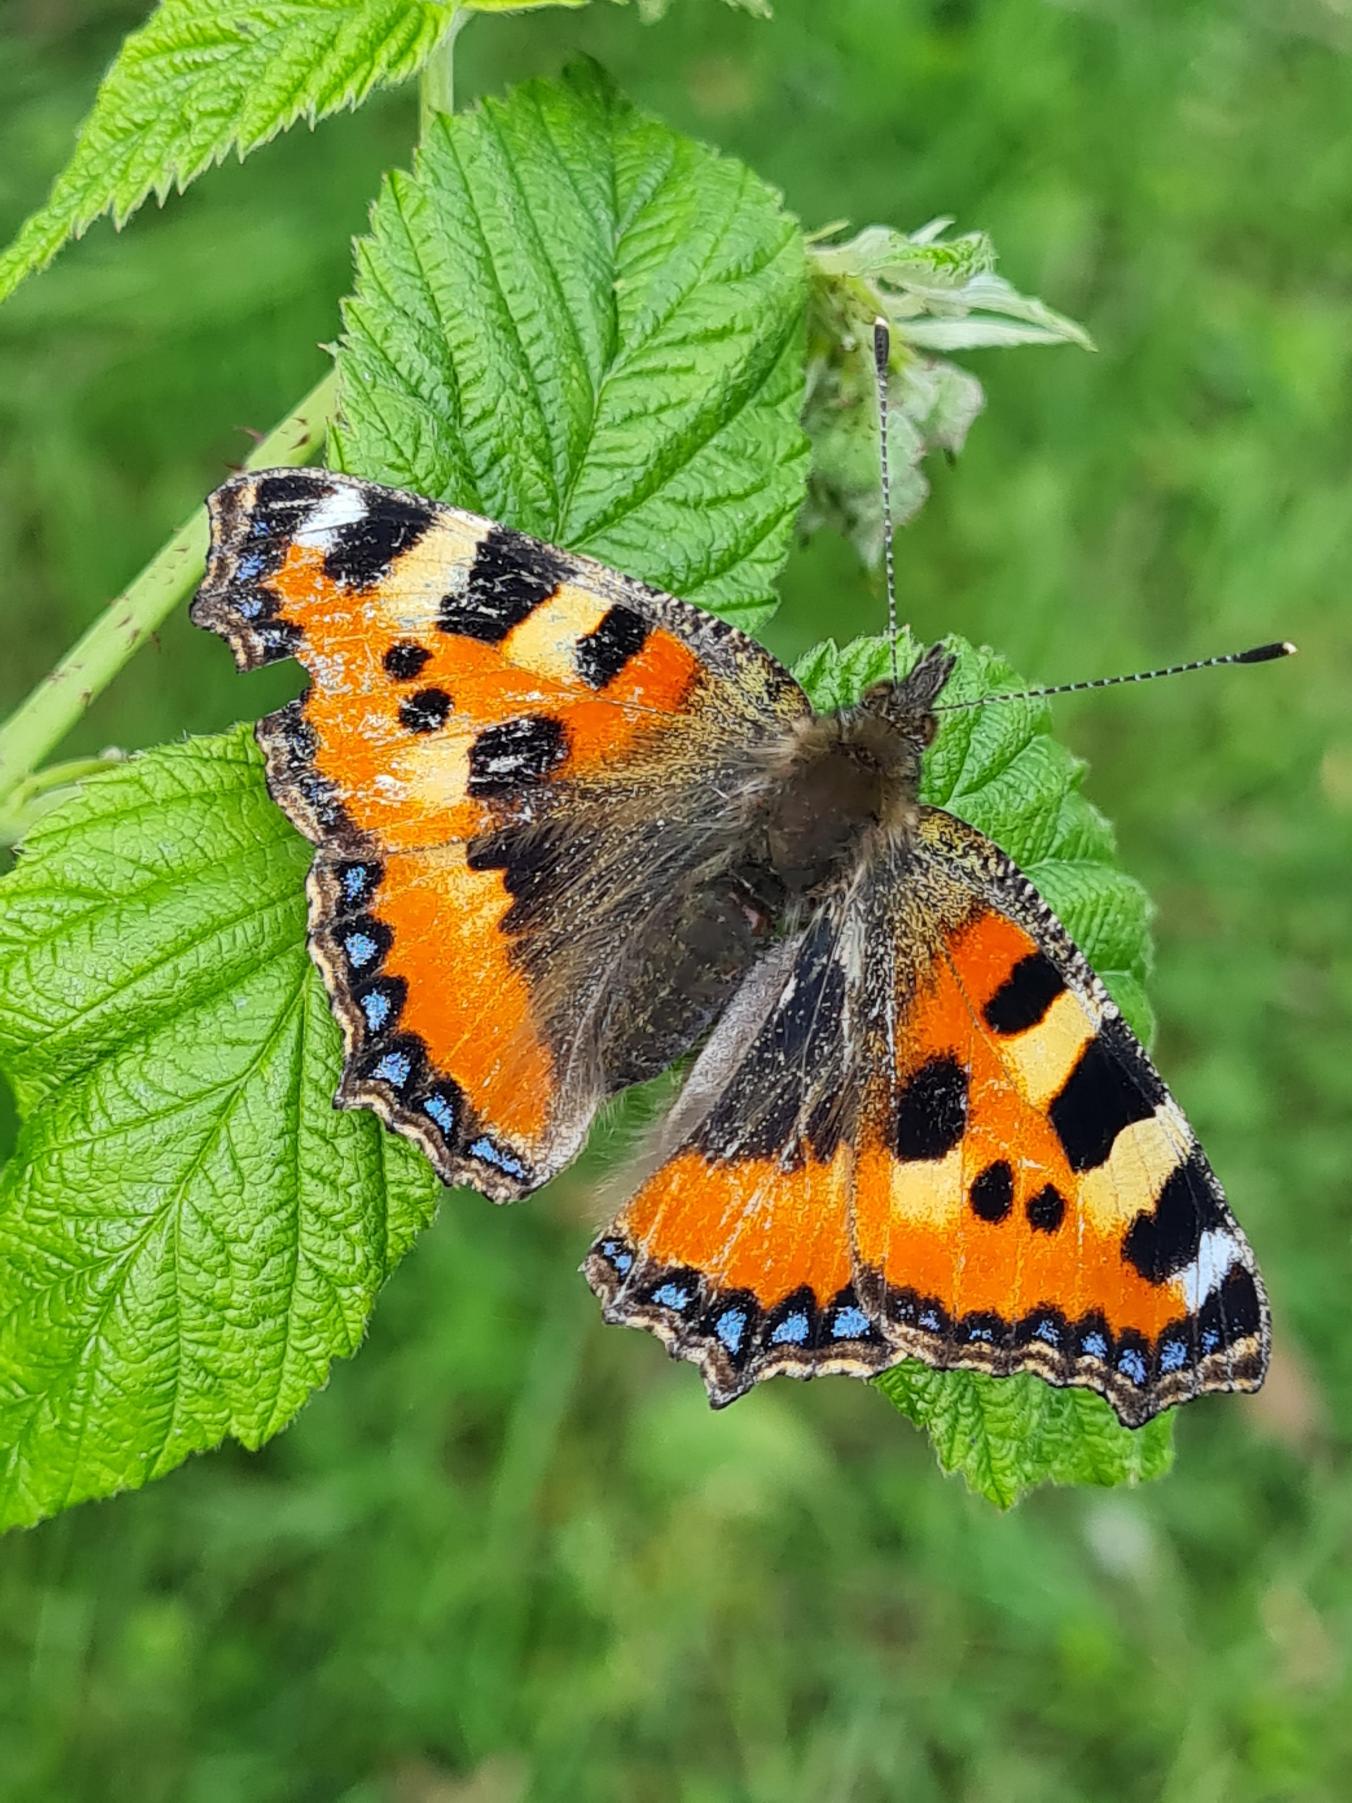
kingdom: Animalia
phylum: Arthropoda
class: Insecta
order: Lepidoptera
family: Nymphalidae
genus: Aglais
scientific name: Aglais urticae
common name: Nældens takvinge
